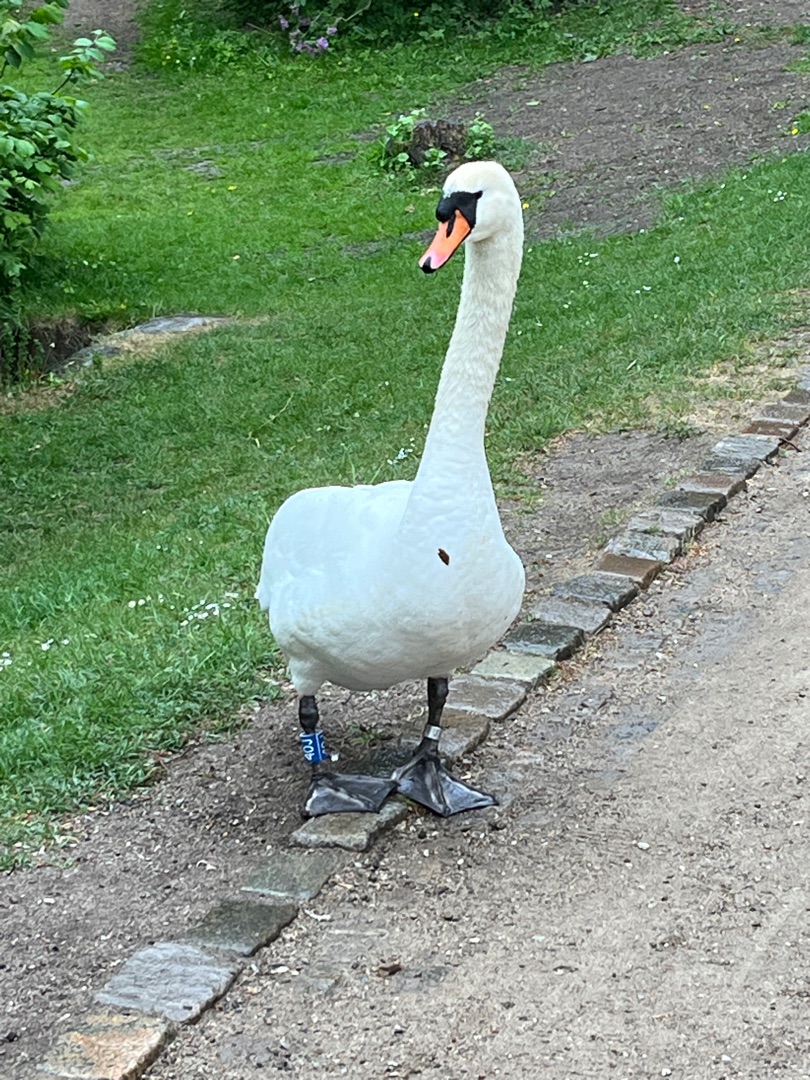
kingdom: Animalia
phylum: Chordata
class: Aves
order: Anseriformes
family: Anatidae
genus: Cygnus
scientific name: Cygnus olor
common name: Knopsvane
